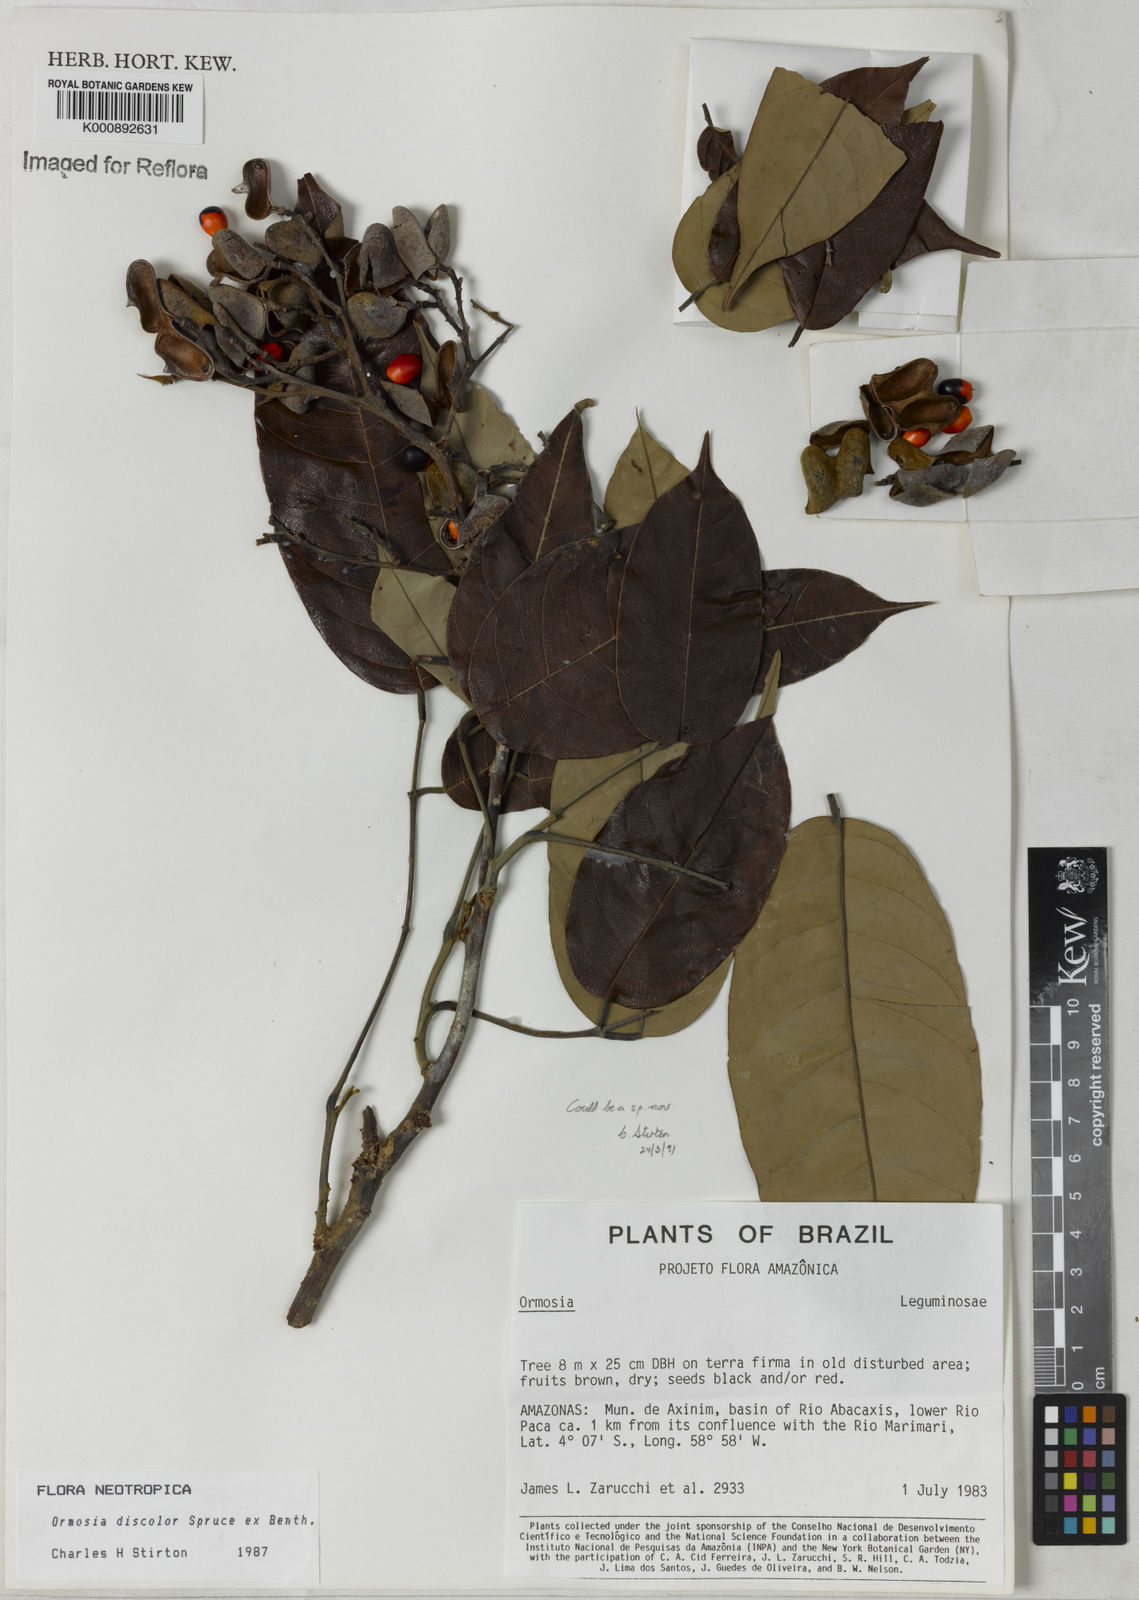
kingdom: Plantae
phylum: Tracheophyta
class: Magnoliopsida
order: Fabales
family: Fabaceae
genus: Ormosia
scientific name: Ormosia
